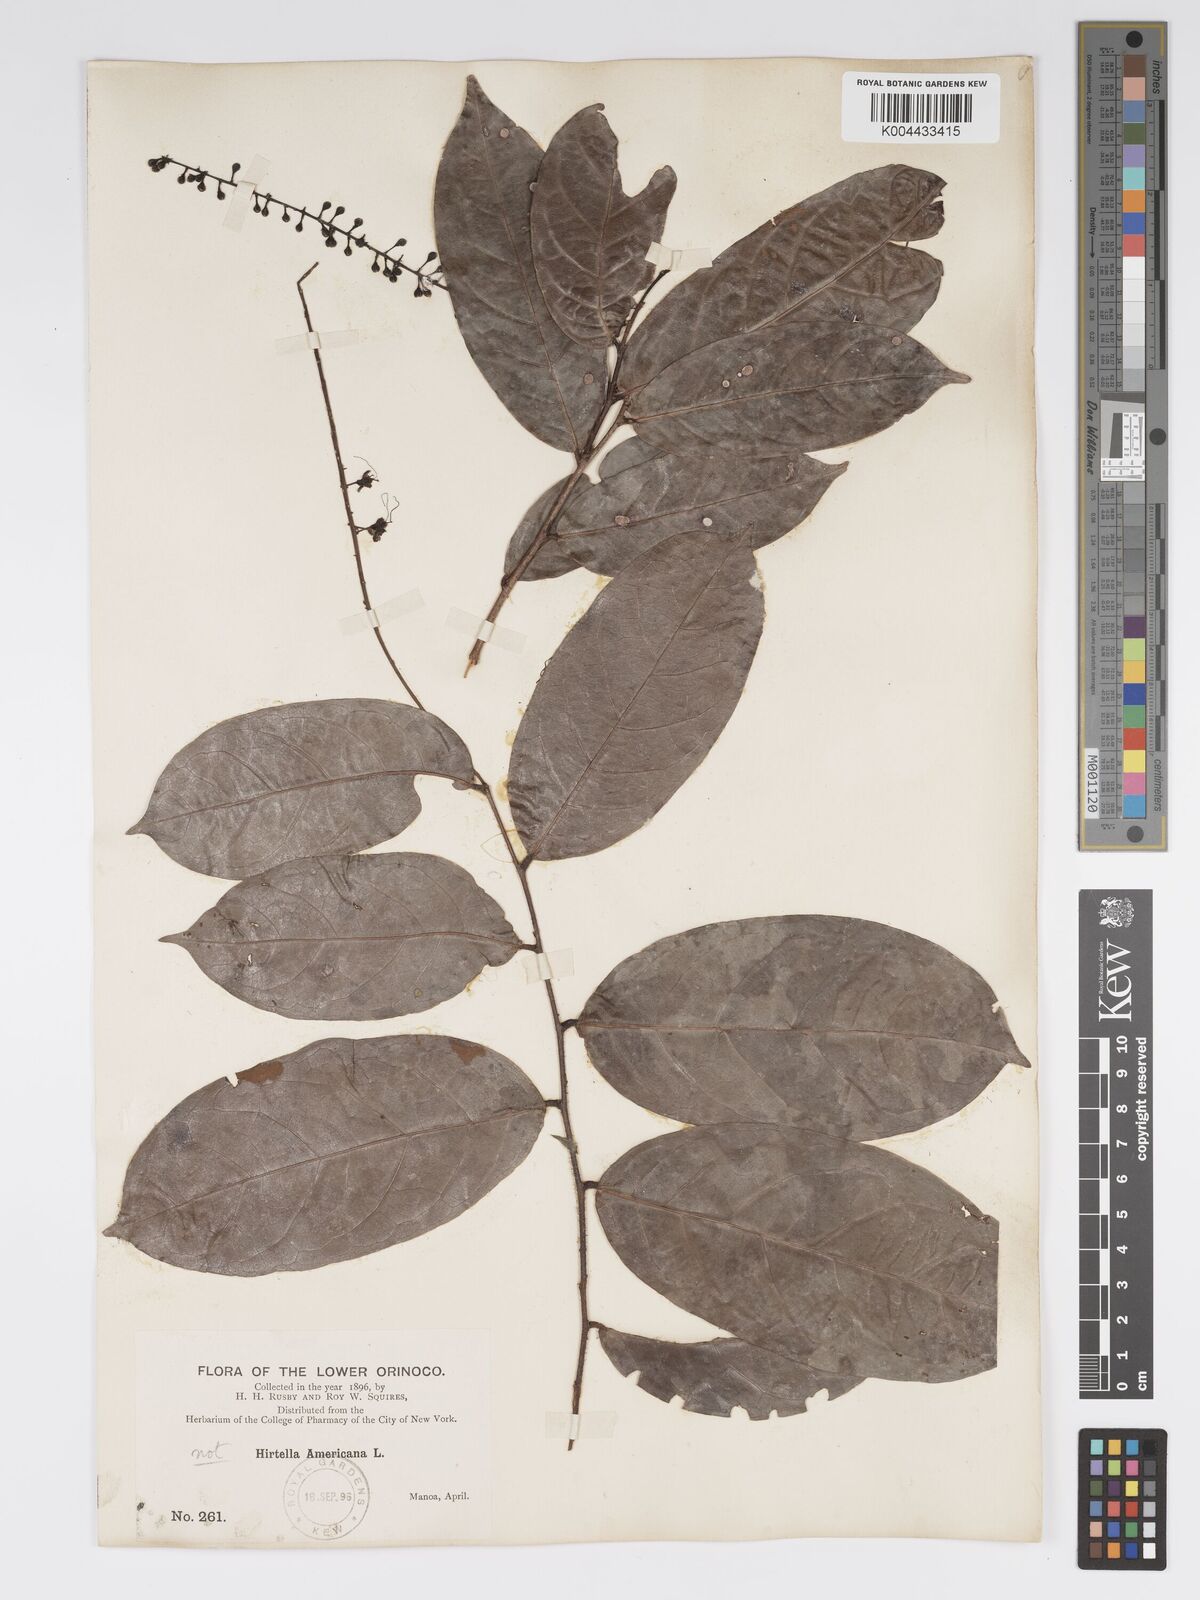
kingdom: Plantae
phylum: Tracheophyta
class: Magnoliopsida
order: Malpighiales
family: Chrysobalanaceae
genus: Hirtella
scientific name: Hirtella racemosa
